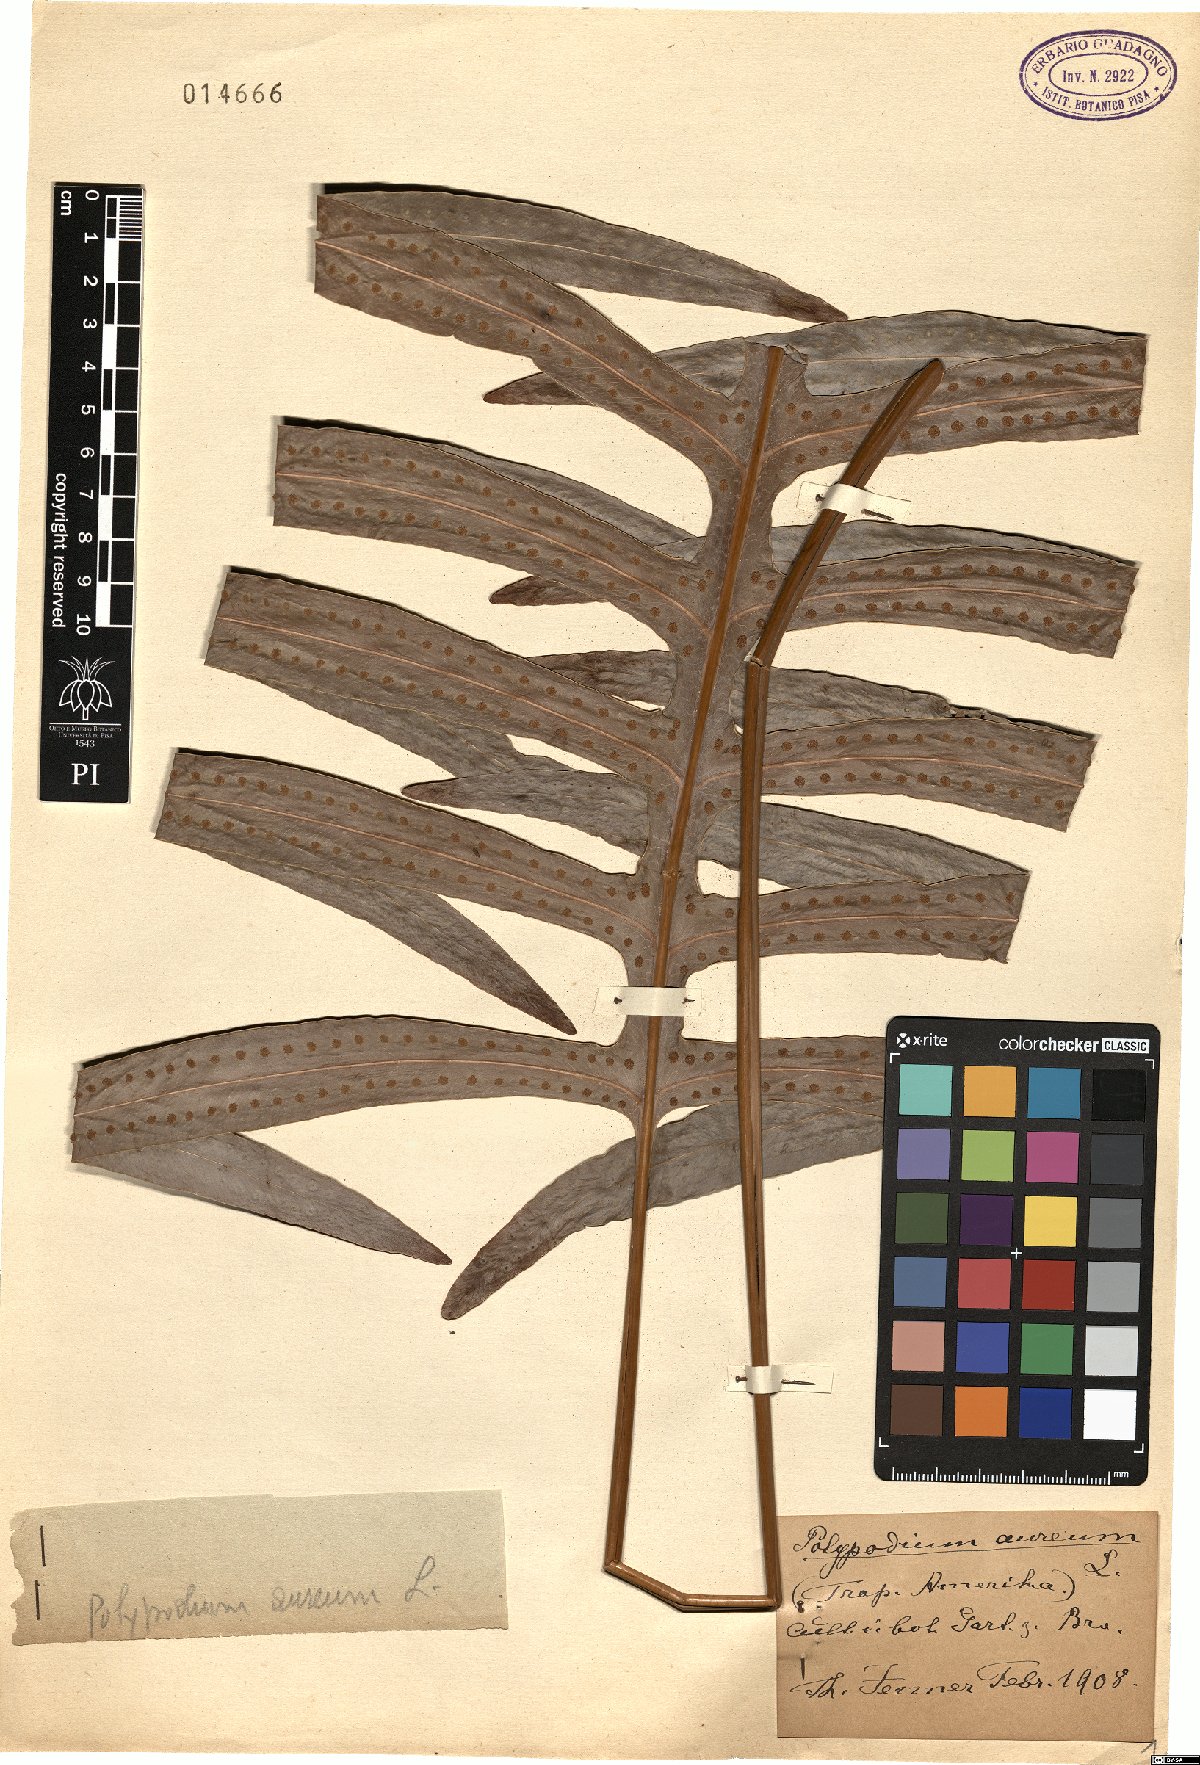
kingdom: Plantae
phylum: Tracheophyta
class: Polypodiopsida
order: Polypodiales
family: Polypodiaceae
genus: Phlebodium
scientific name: Phlebodium aureum
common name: Gold-foot fern
